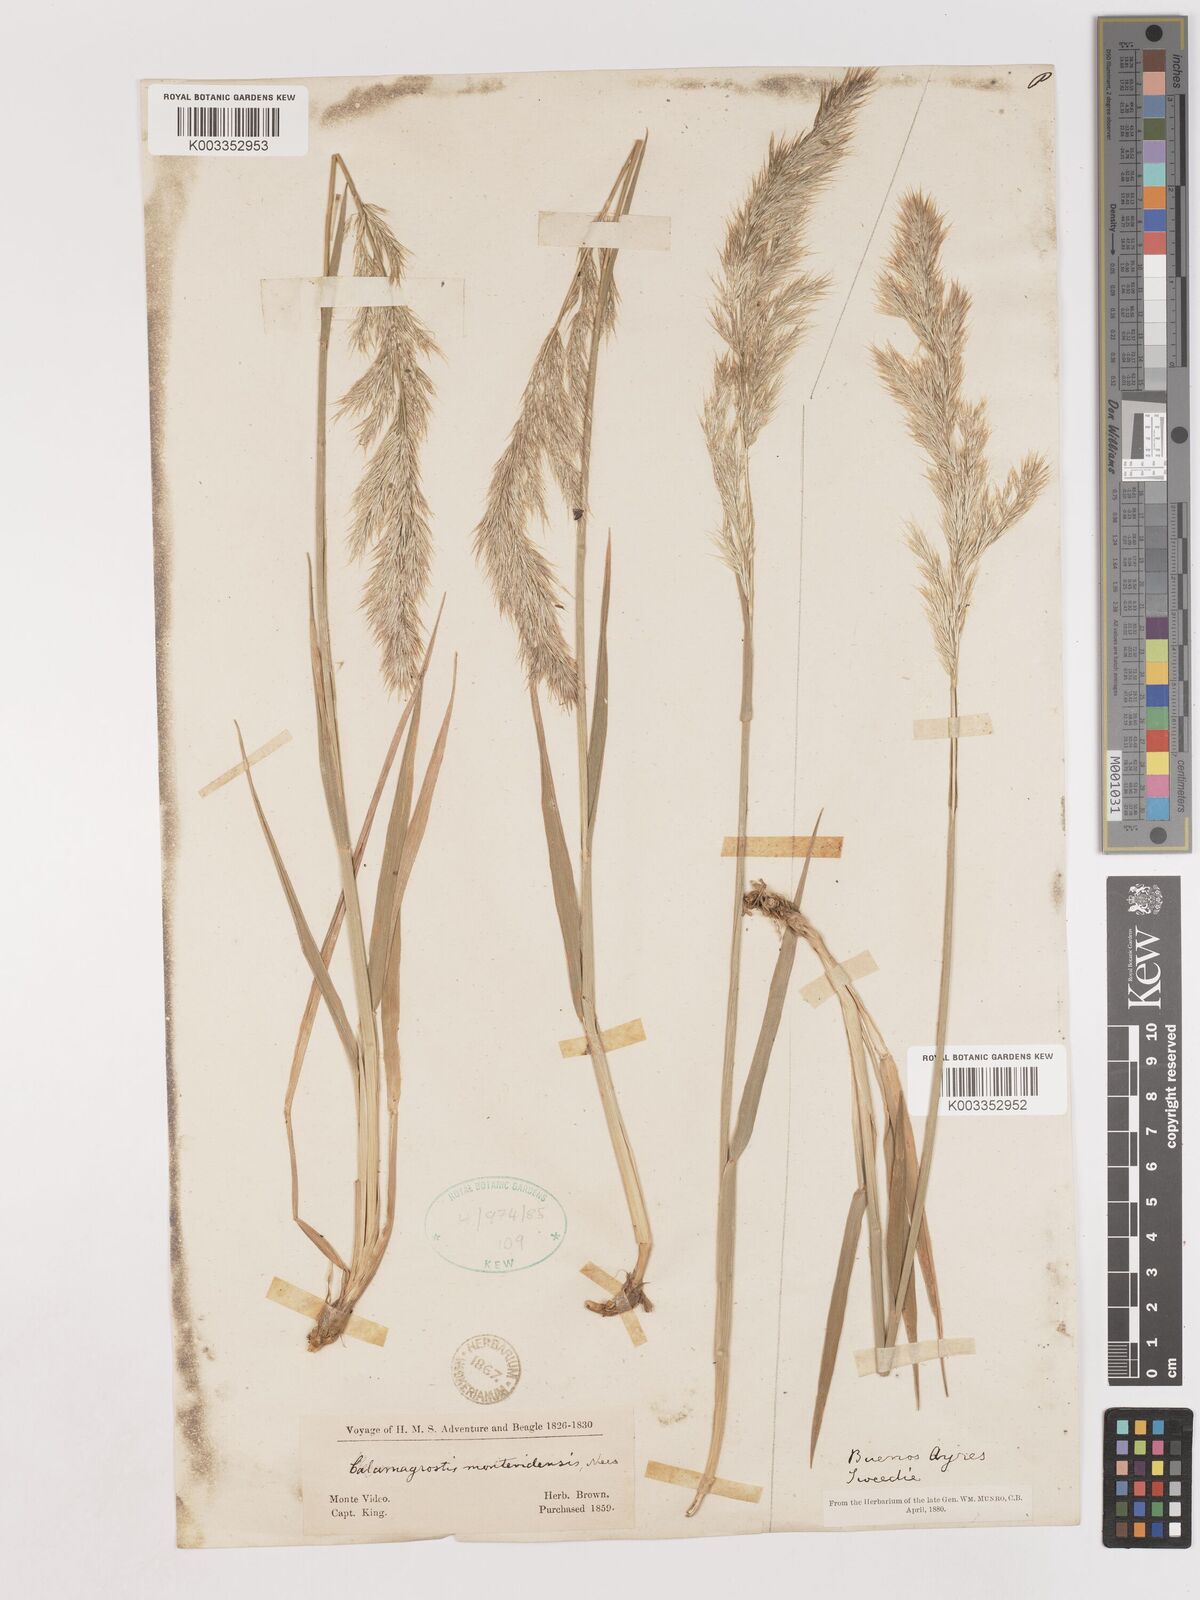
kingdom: Plantae
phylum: Tracheophyta
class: Liliopsida
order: Poales
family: Poaceae
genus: Cinnagrostis
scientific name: Cinnagrostis viridiflavescens
